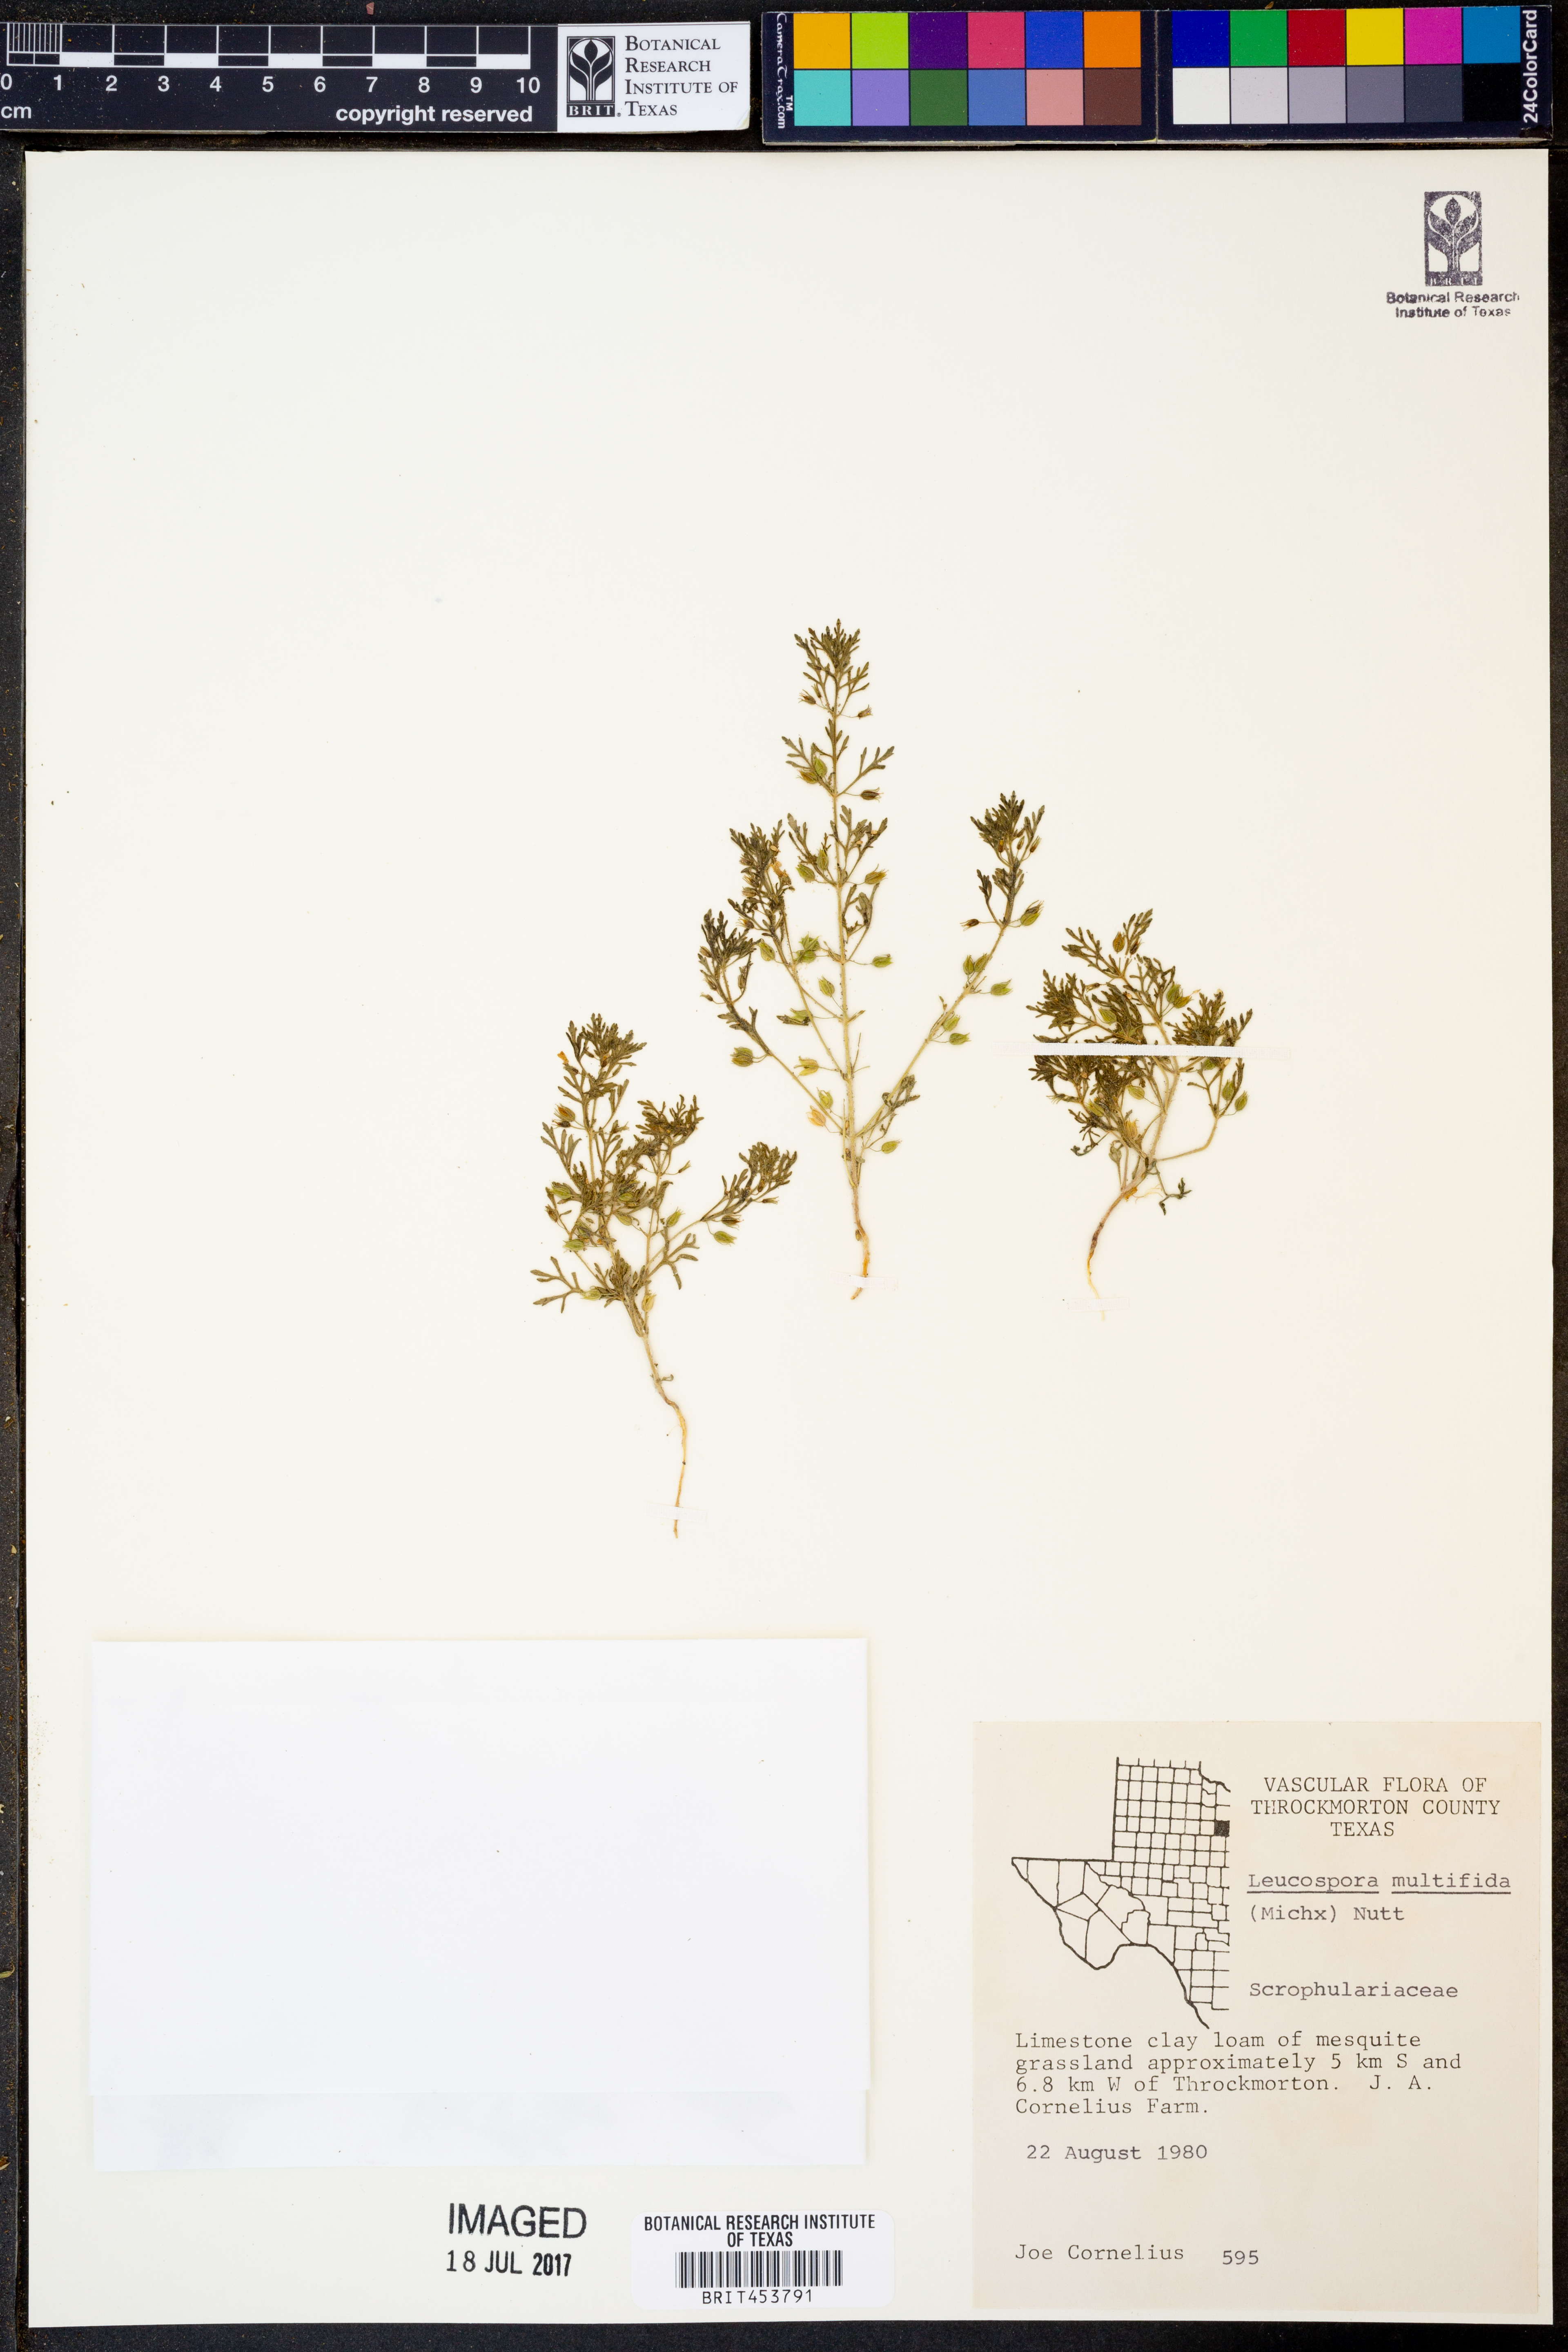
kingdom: Plantae
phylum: Tracheophyta
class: Magnoliopsida
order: Lamiales
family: Plantaginaceae
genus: Leucospora
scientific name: Leucospora multifida
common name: Narrow-leaf paleseed
